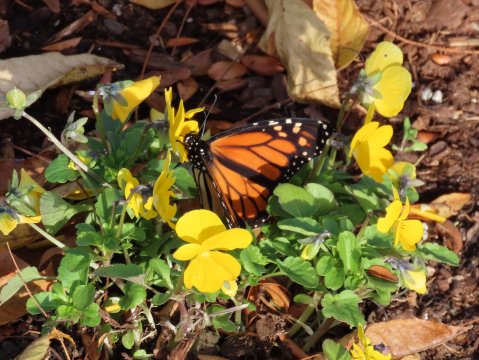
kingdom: Animalia
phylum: Arthropoda
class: Insecta
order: Lepidoptera
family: Nymphalidae
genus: Danaus
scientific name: Danaus plexippus
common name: Monarch
